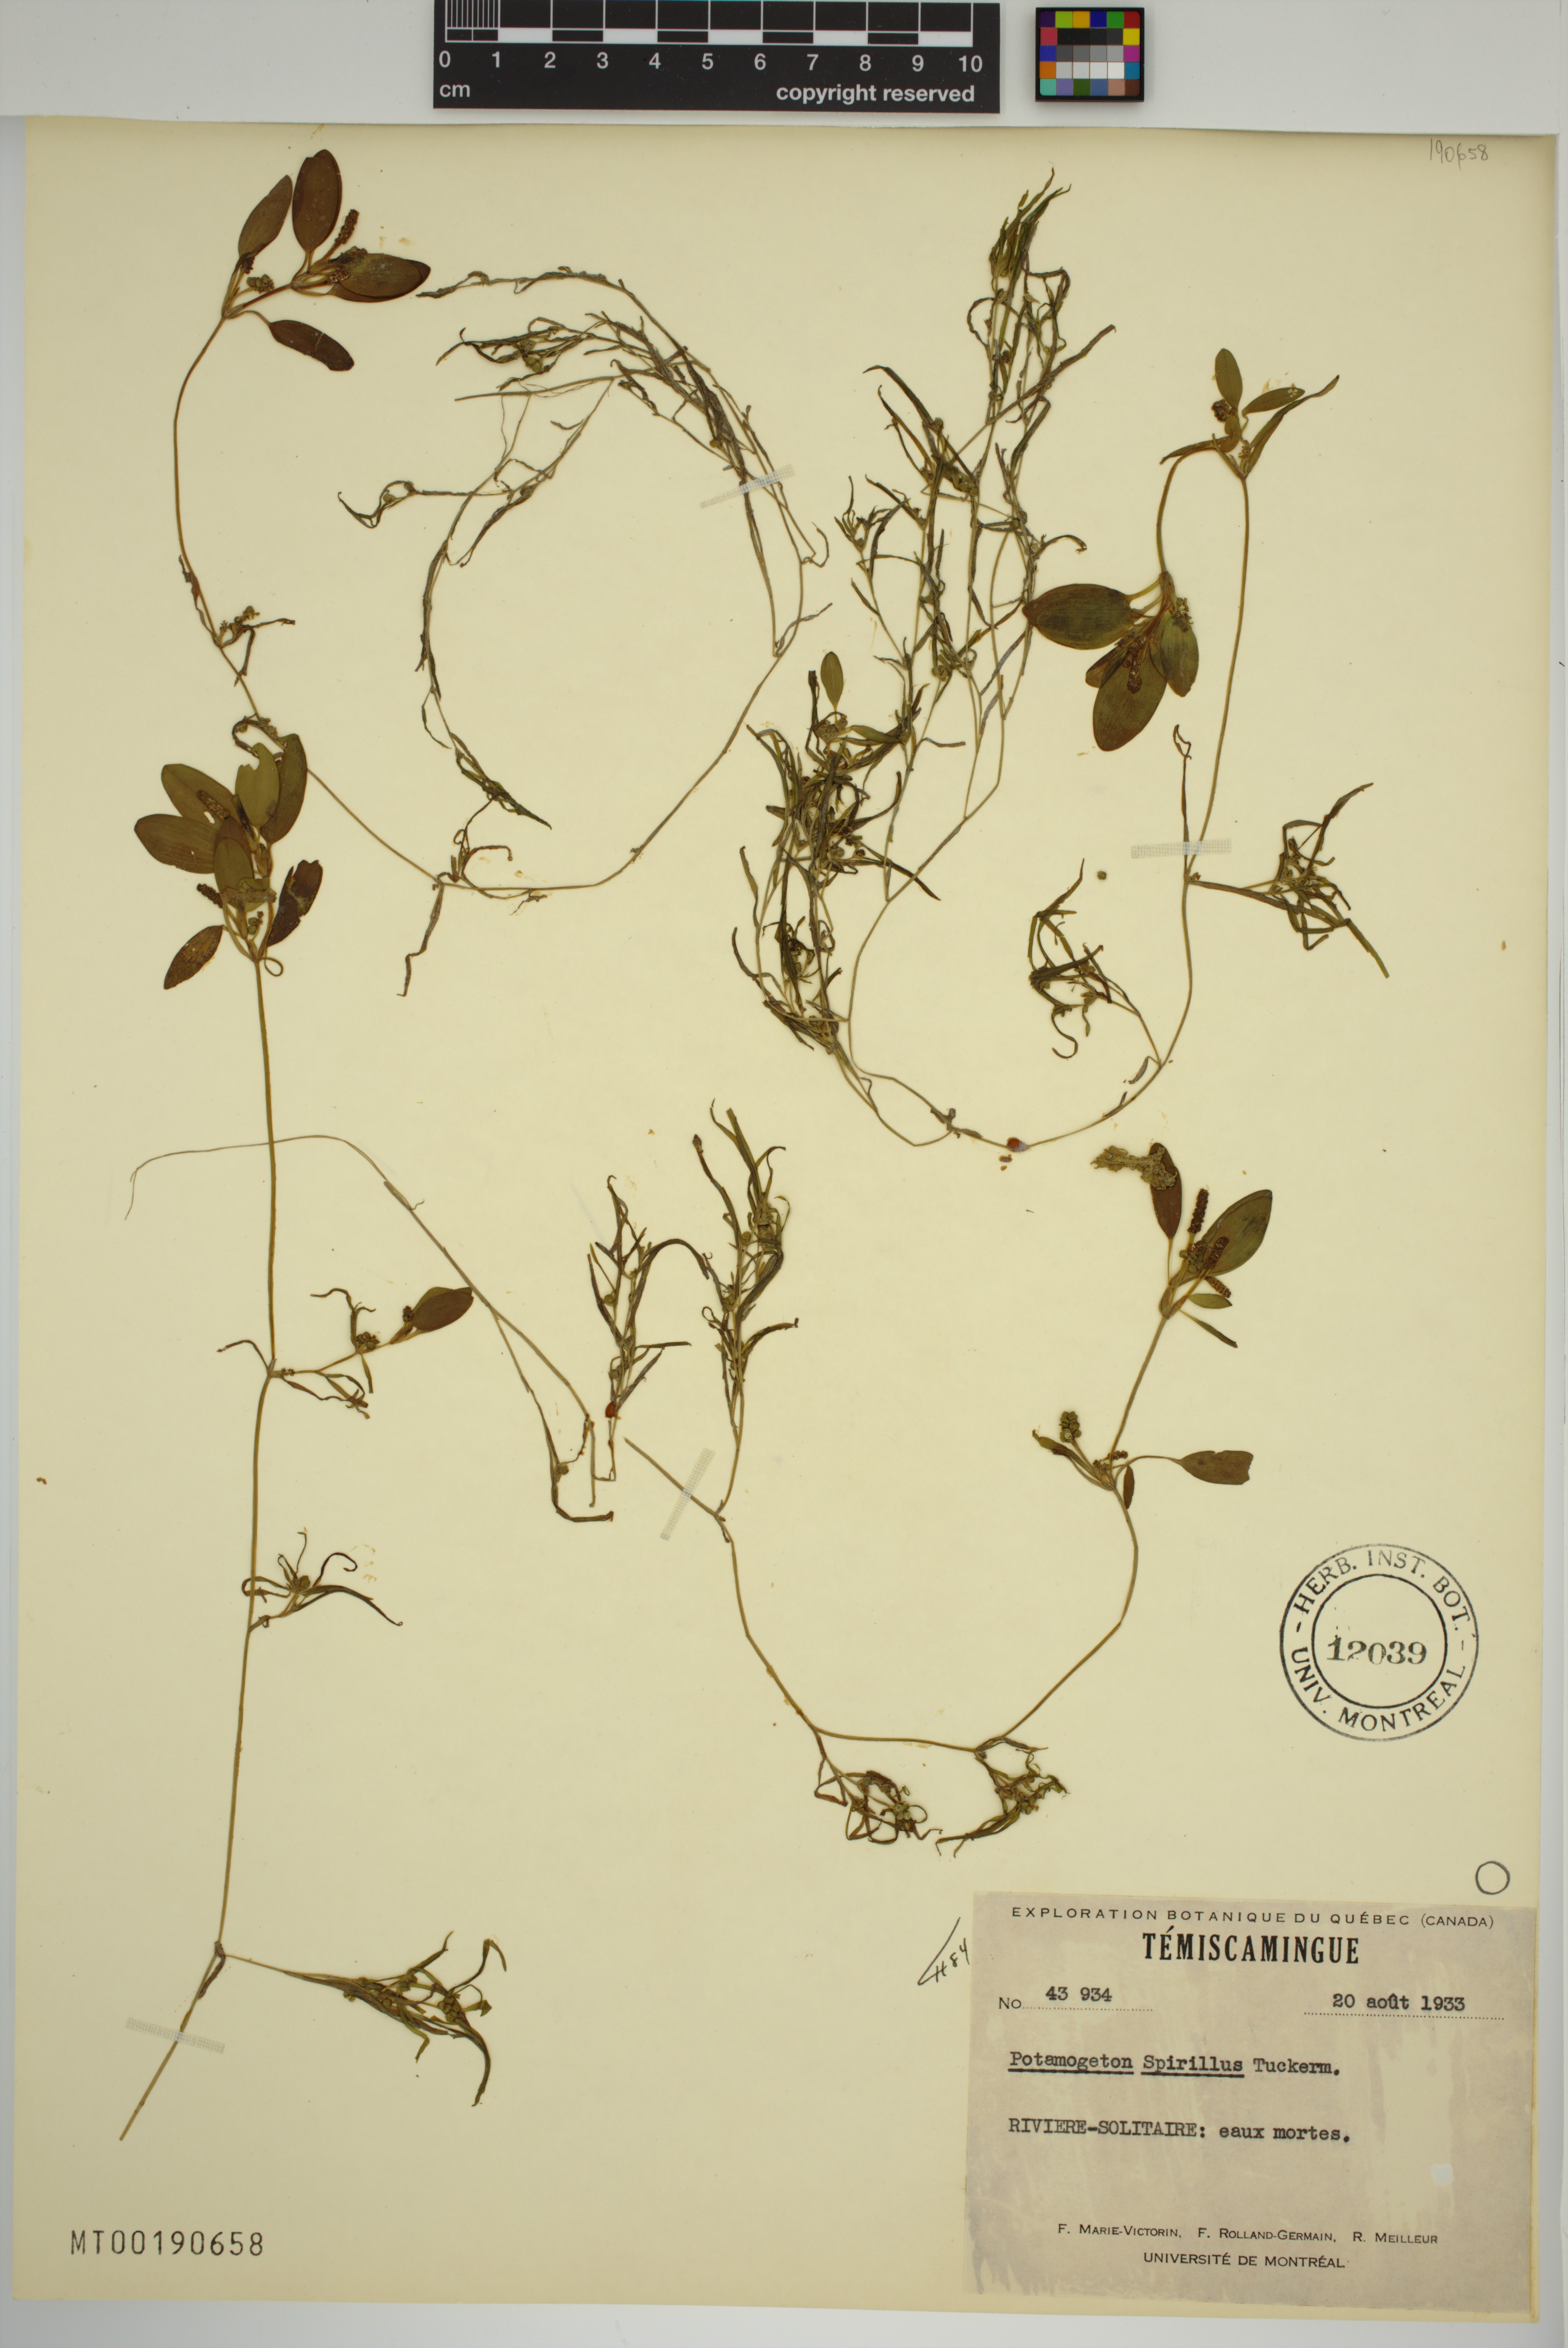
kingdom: Plantae
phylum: Tracheophyta
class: Liliopsida
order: Alismatales
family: Potamogetonaceae
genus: Potamogeton
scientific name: Potamogeton spirillus
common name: Northern snail-seed pondweed
